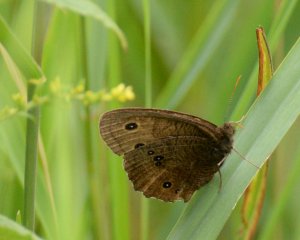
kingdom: Animalia
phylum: Arthropoda
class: Insecta
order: Lepidoptera
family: Nymphalidae
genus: Cercyonis
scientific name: Cercyonis pegala
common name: Common Wood-Nymph
